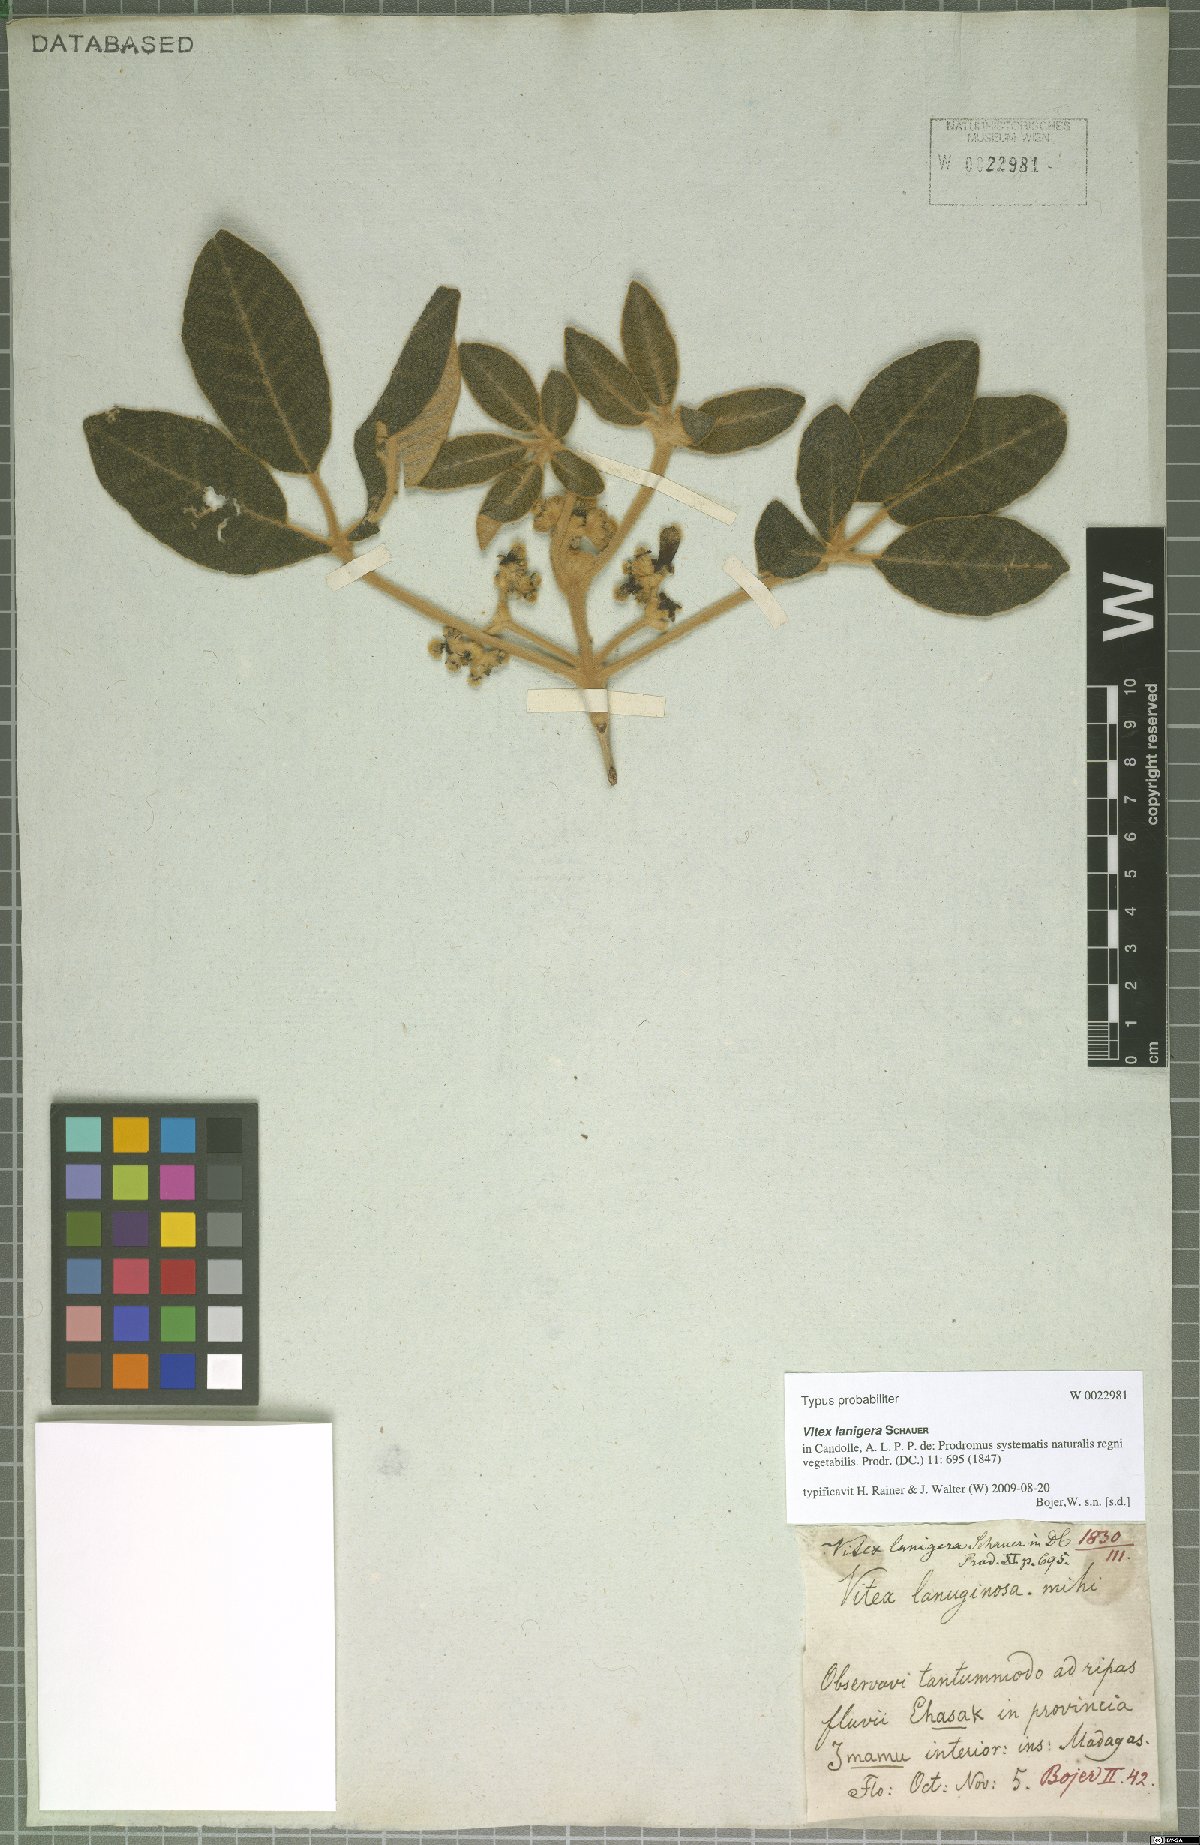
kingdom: Plantae
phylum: Tracheophyta
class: Magnoliopsida
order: Lamiales
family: Lamiaceae
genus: Vitex
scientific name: Vitex lanigera
